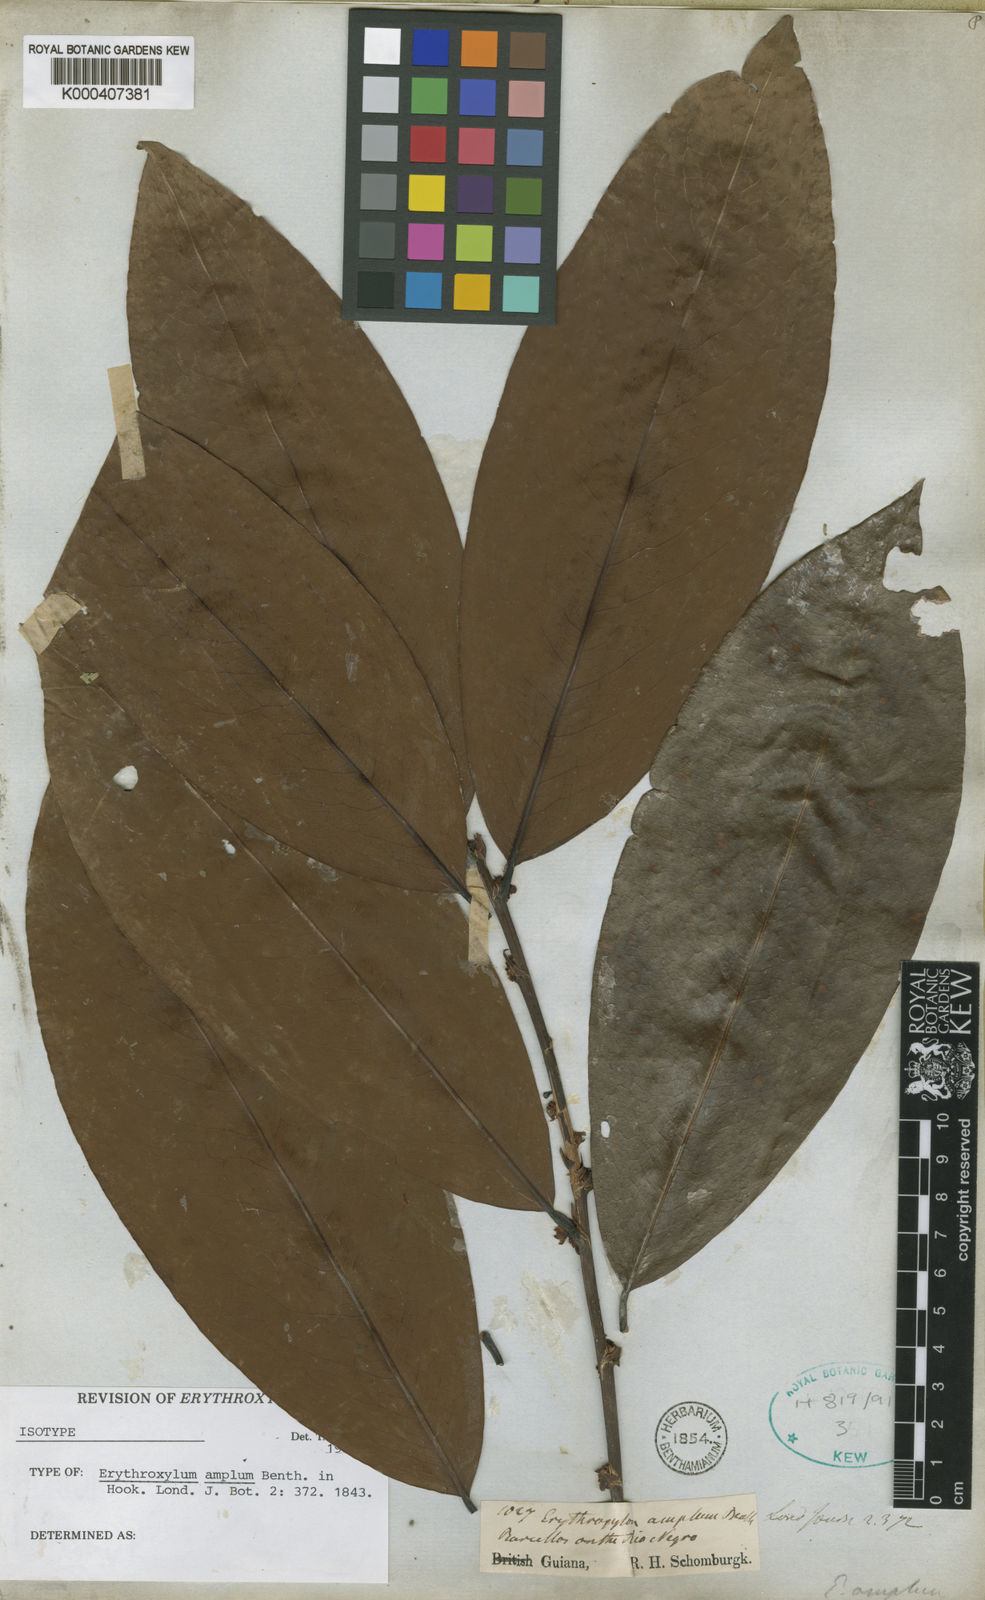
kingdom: Plantae
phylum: Tracheophyta
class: Magnoliopsida
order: Malpighiales
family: Erythroxylaceae
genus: Erythroxylum
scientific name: Erythroxylum amplum
